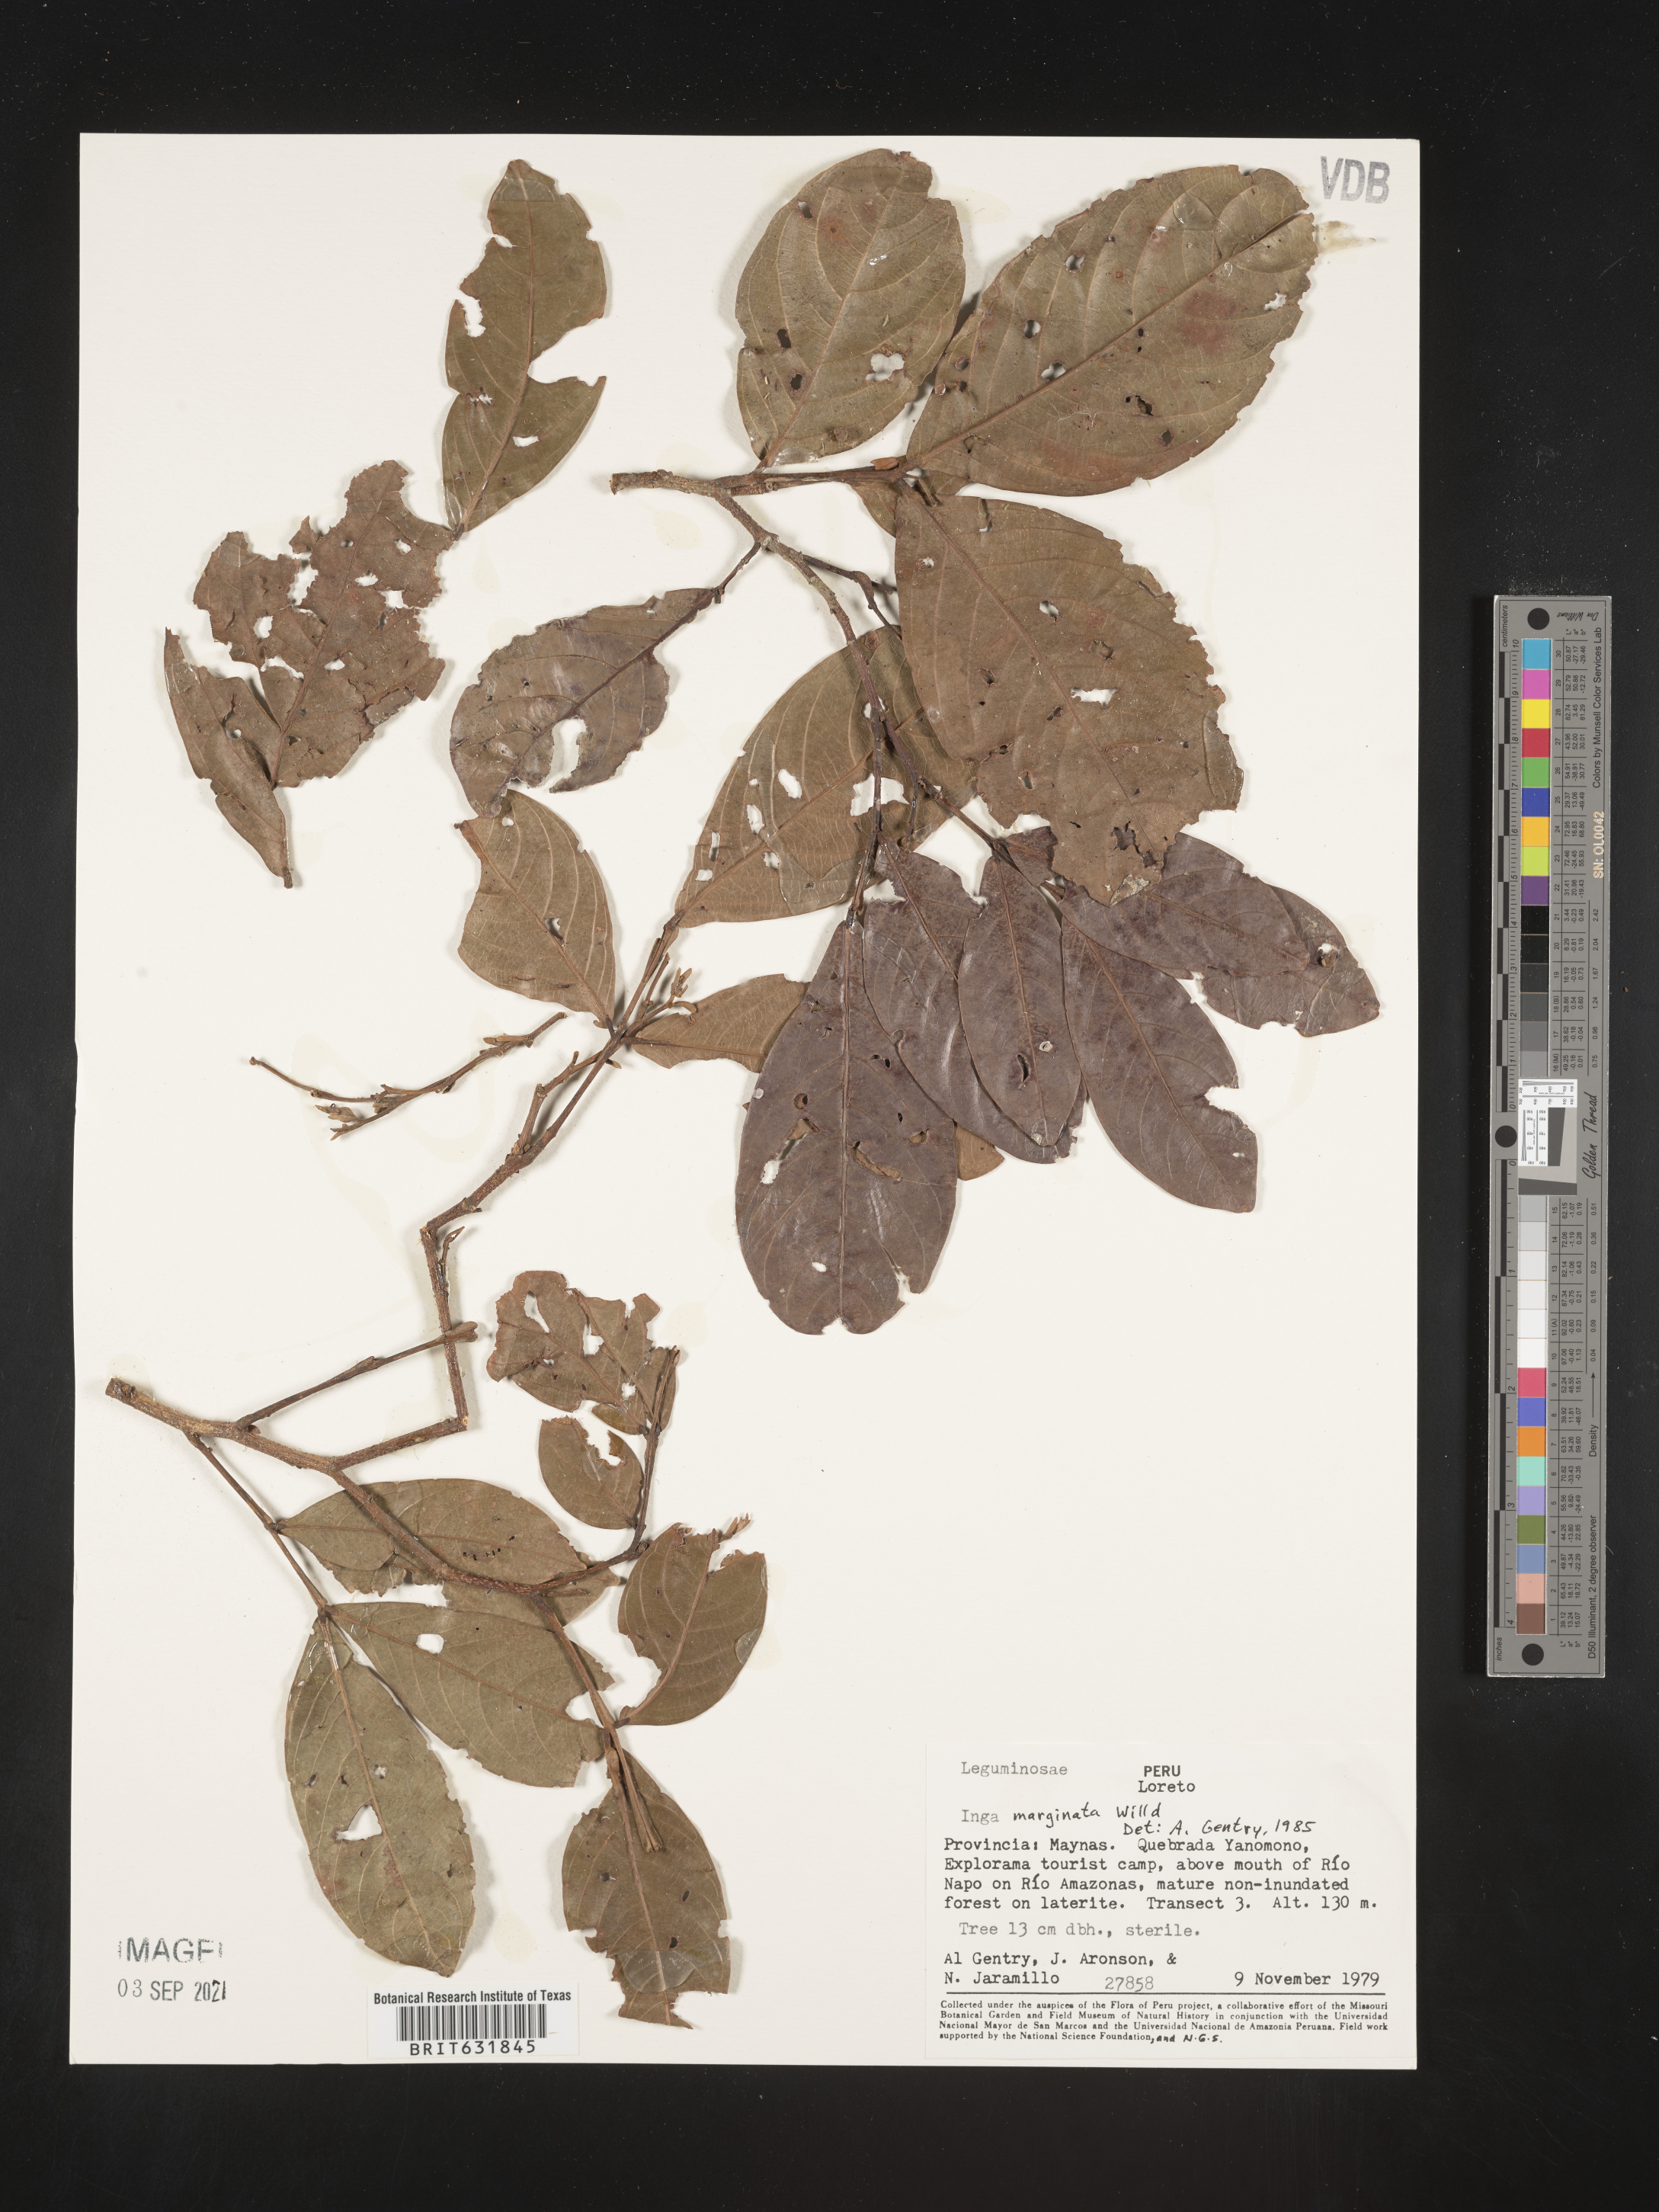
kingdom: Plantae
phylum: Tracheophyta
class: Magnoliopsida
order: Fabales
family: Fabaceae
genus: Inga
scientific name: Inga
